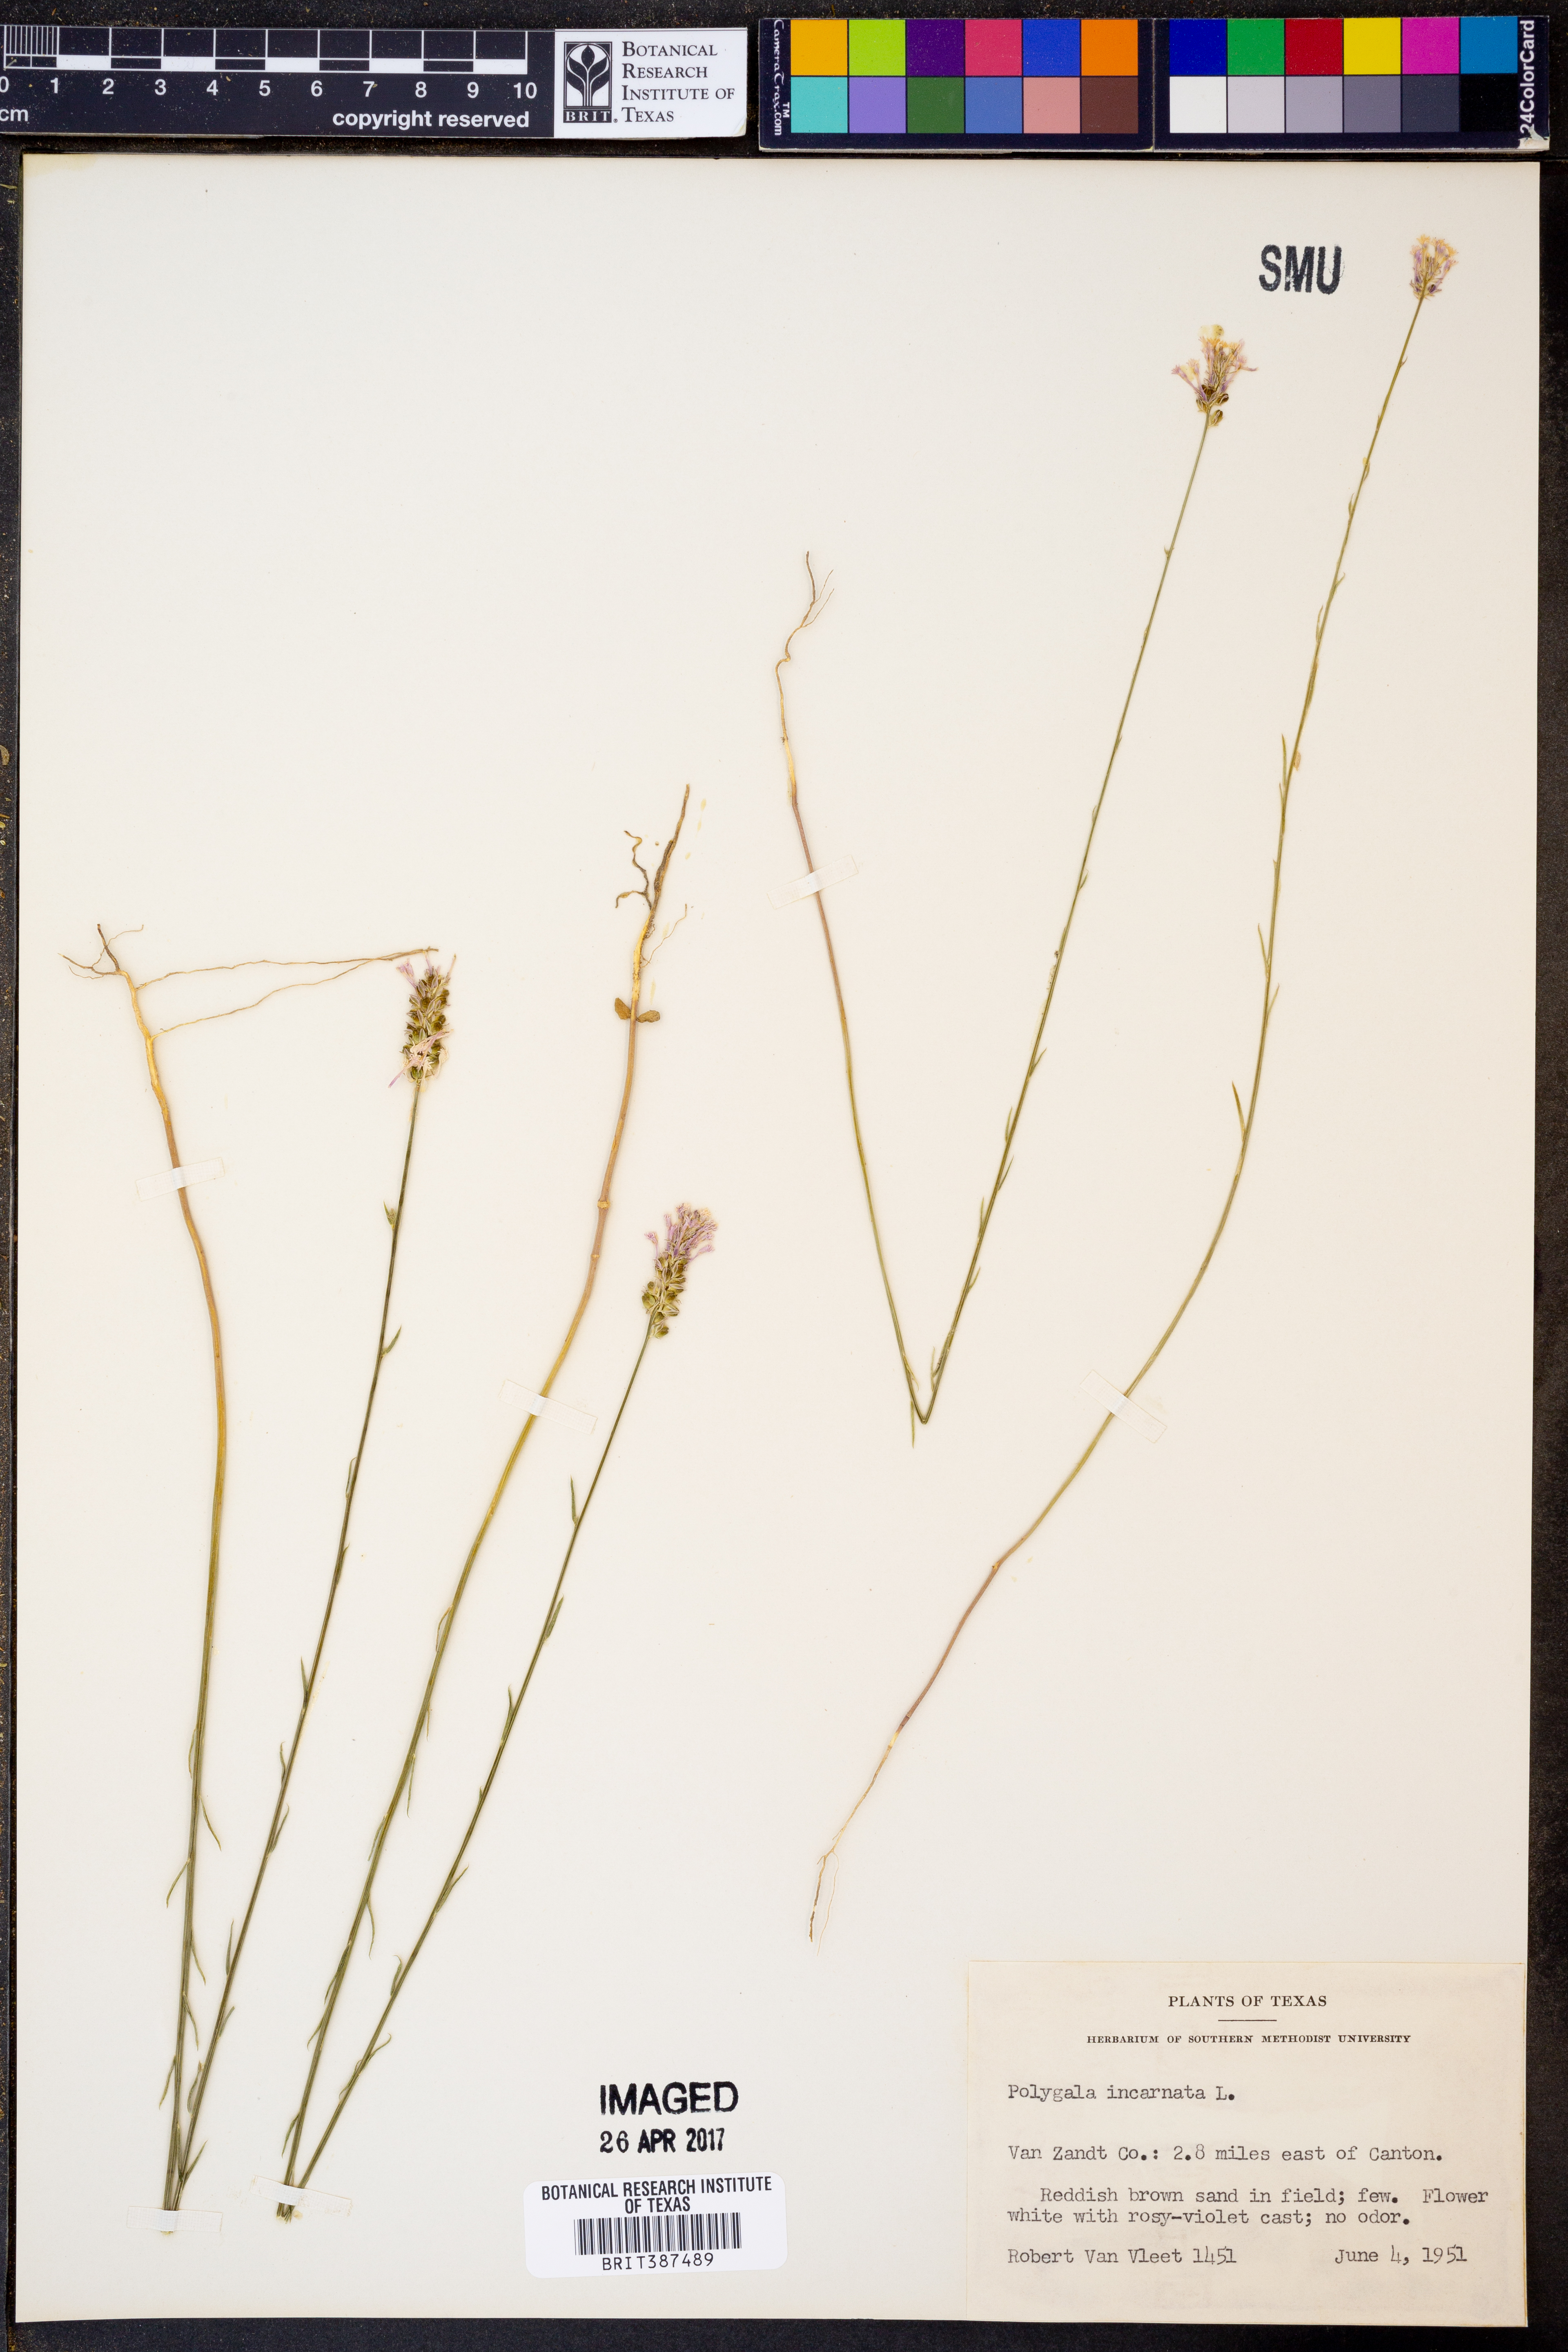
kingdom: Plantae
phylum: Tracheophyta
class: Magnoliopsida
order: Fabales
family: Polygalaceae
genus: Polygala
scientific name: Polygala incarnata
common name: Pink milkwort
